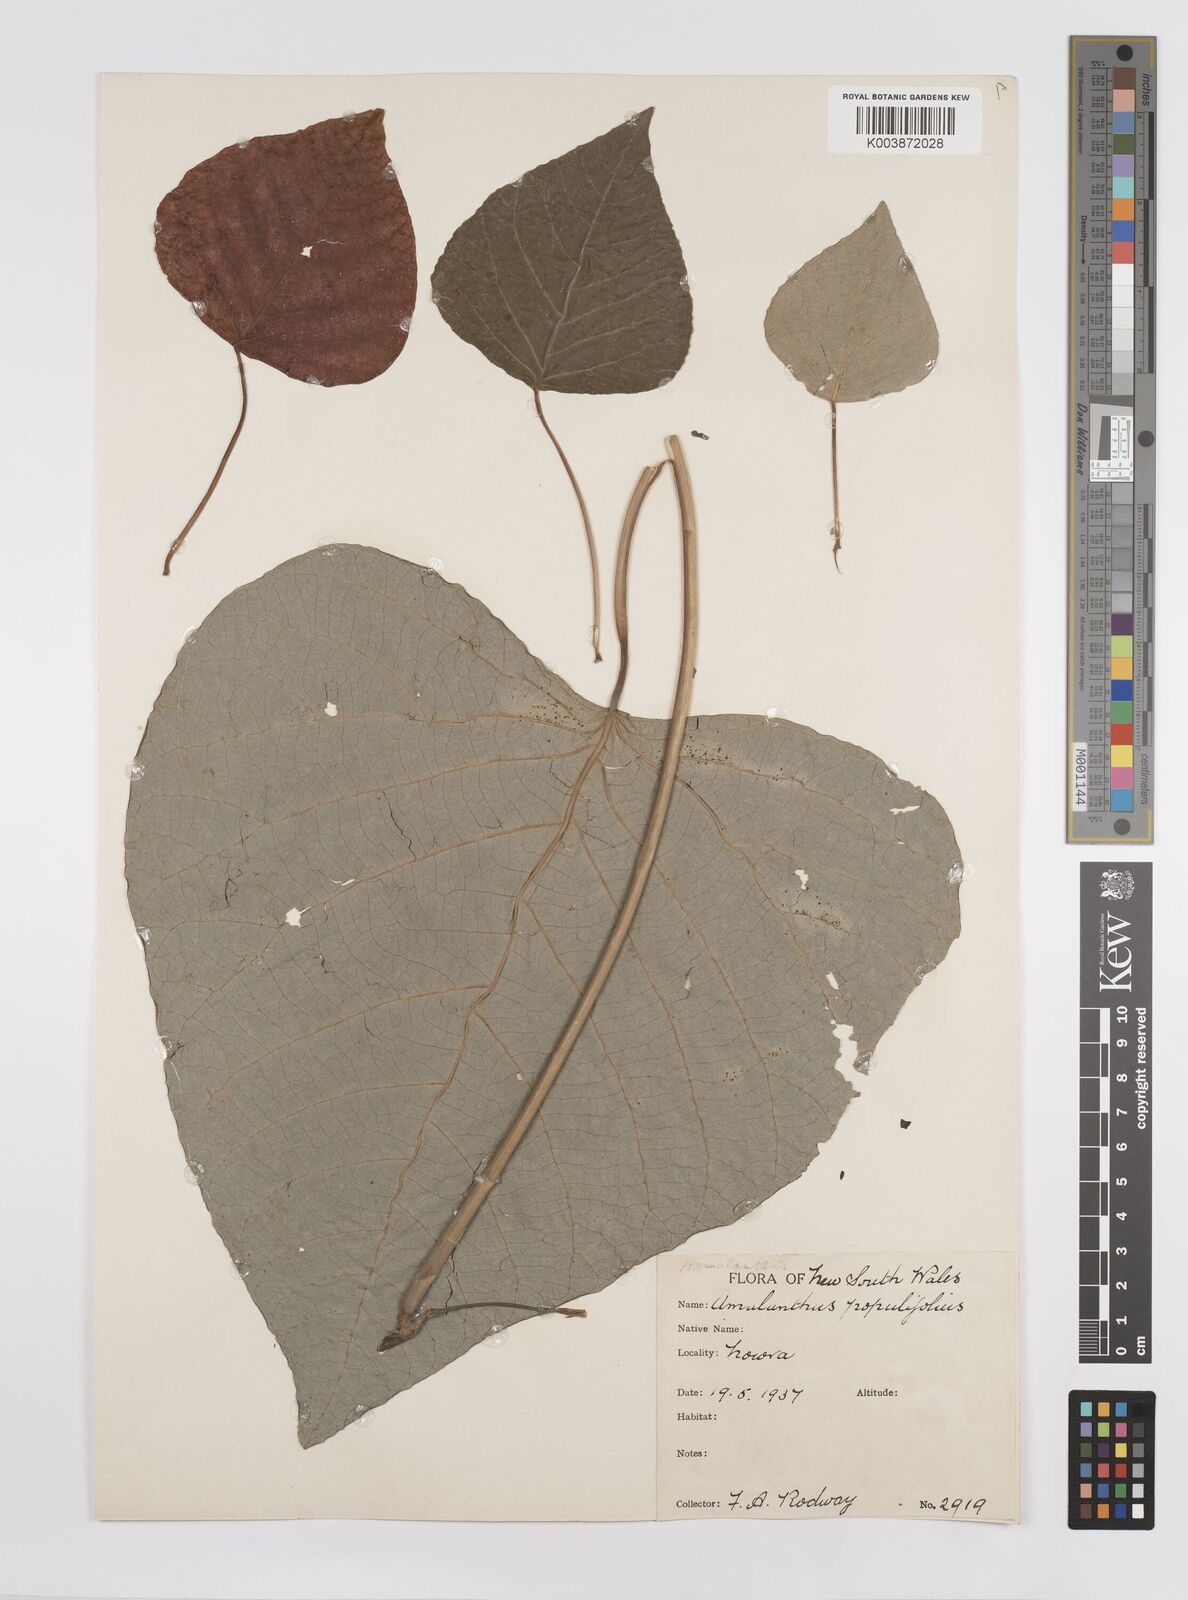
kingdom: Plantae
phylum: Tracheophyta
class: Magnoliopsida
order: Malpighiales
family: Euphorbiaceae
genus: Homalanthus
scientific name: Homalanthus populifolius
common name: Queensland poplar
